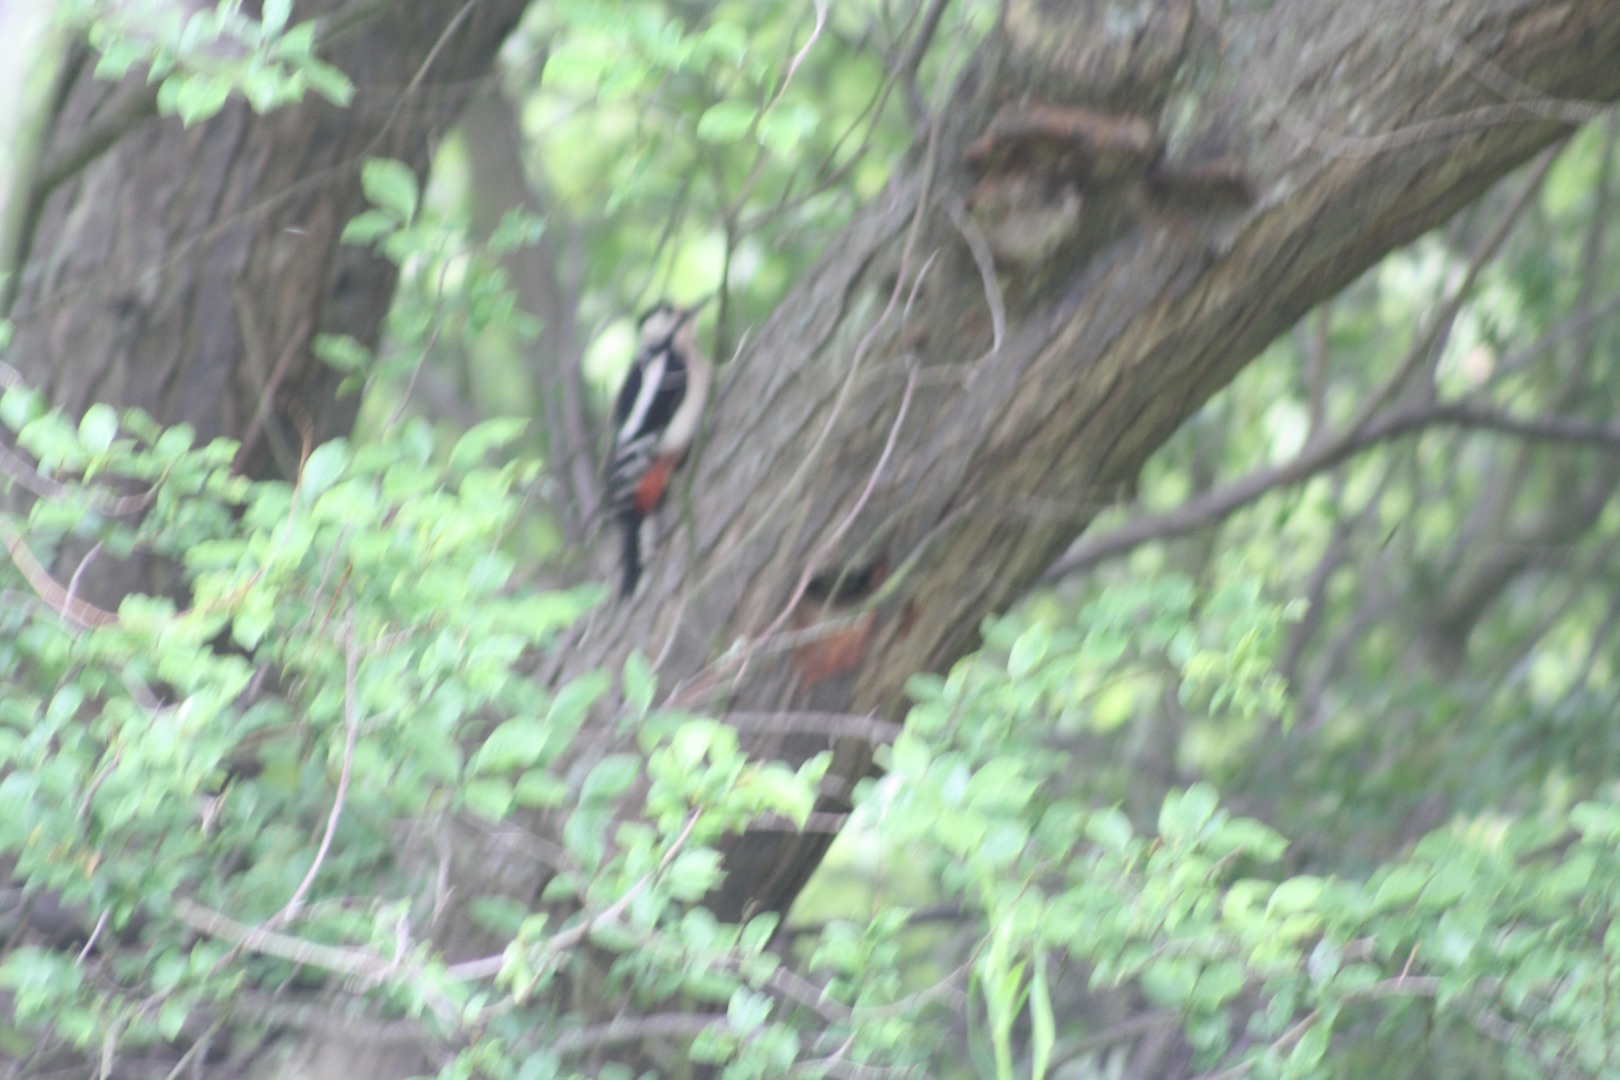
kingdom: Animalia
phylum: Chordata
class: Aves
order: Piciformes
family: Picidae
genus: Dendrocopos
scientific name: Dendrocopos major
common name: Stor flagspætte
